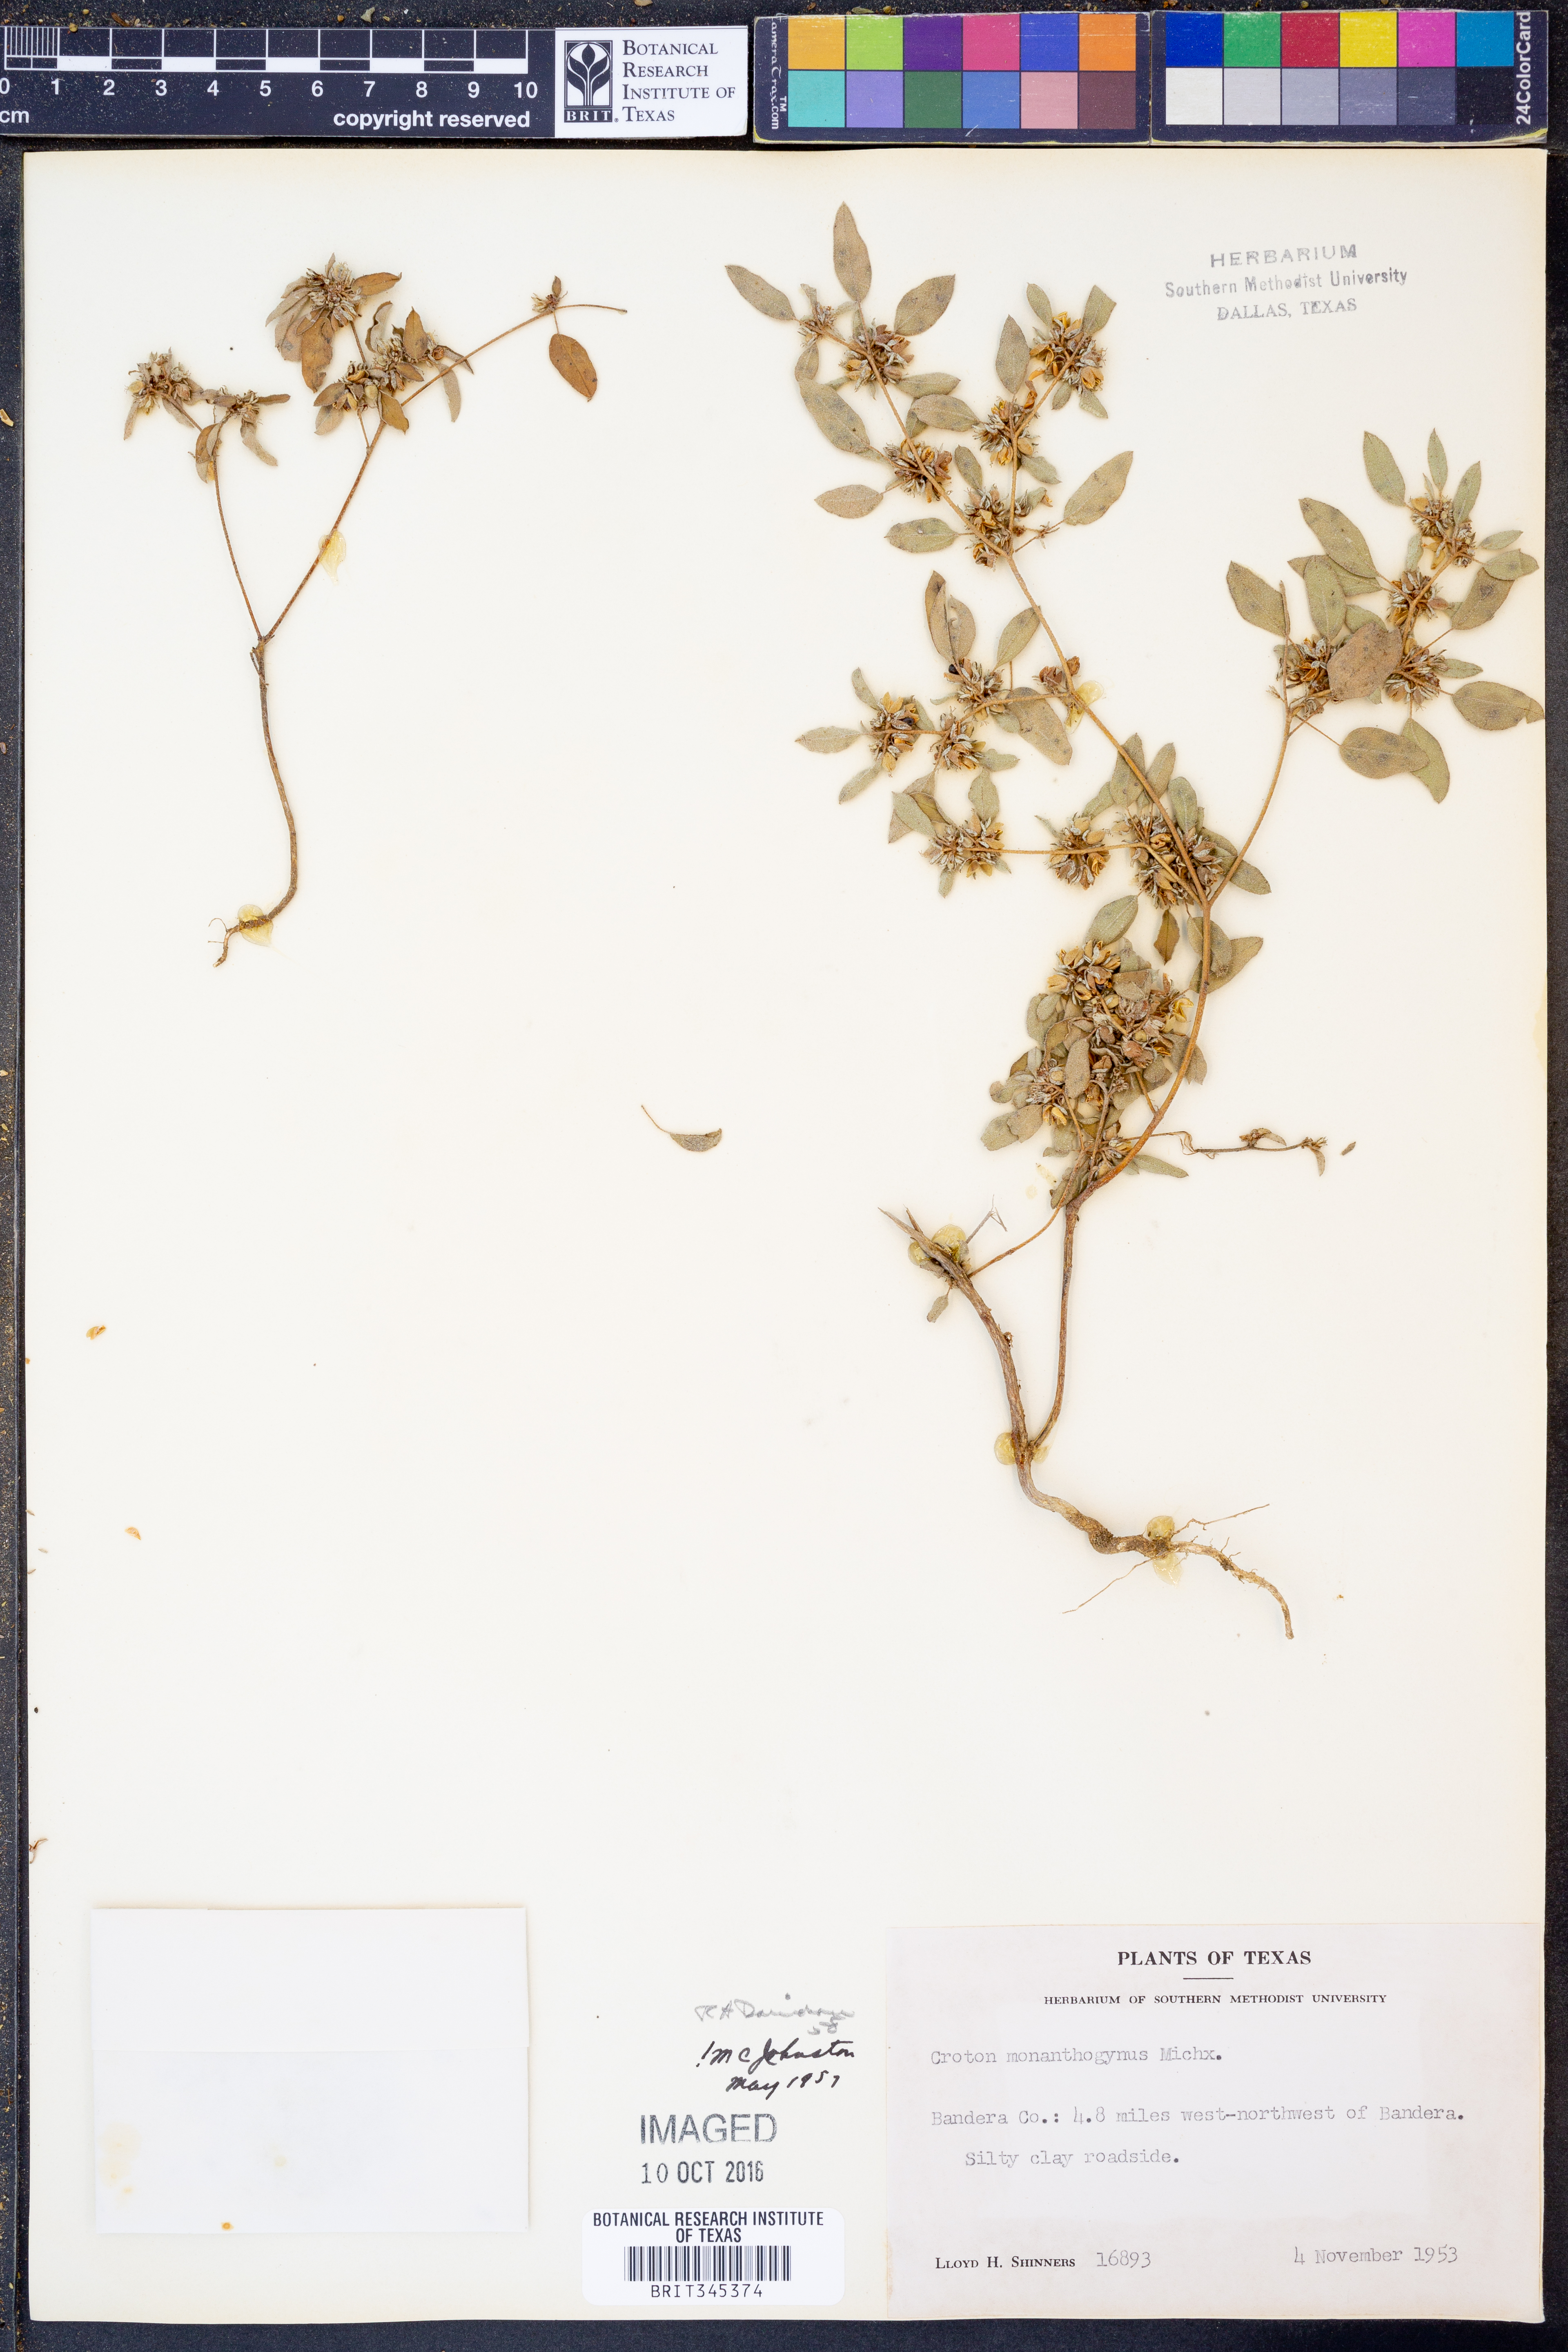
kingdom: Plantae
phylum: Tracheophyta
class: Magnoliopsida
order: Malpighiales
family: Euphorbiaceae
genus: Croton
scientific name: Croton monanthogynus
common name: One-seed croton
